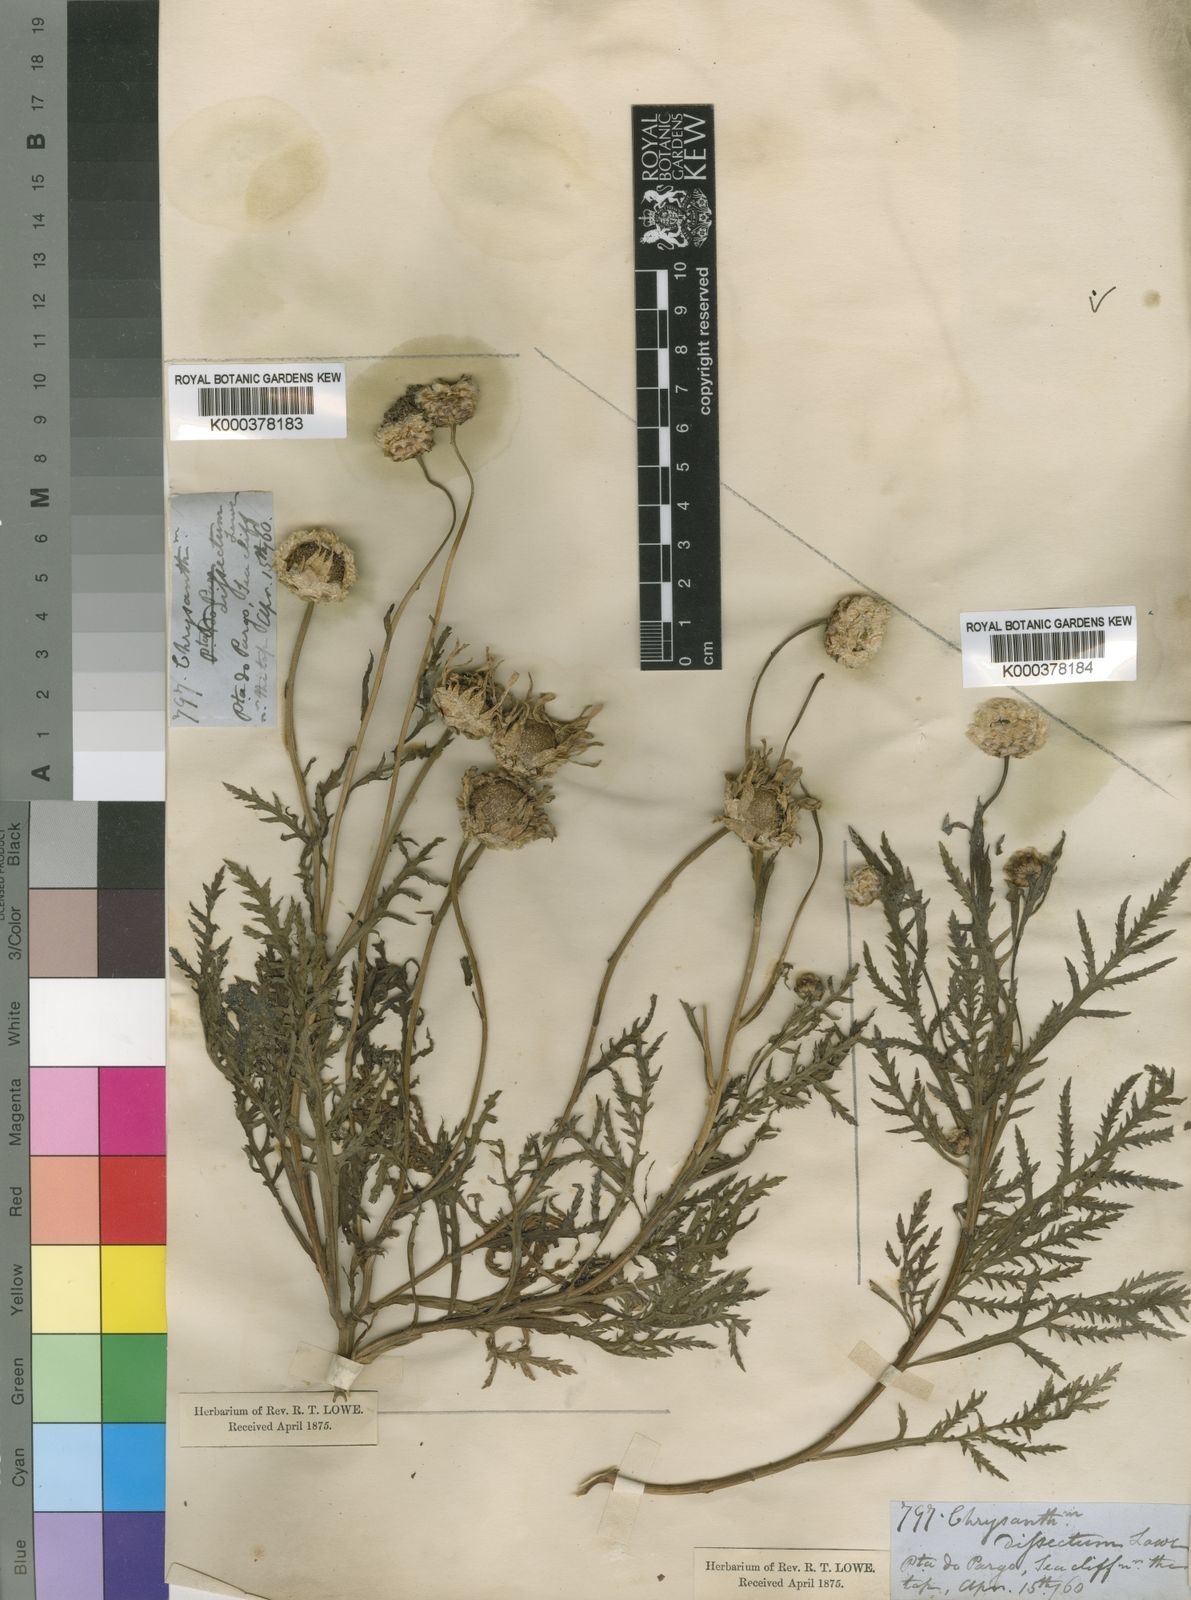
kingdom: Plantae
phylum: Tracheophyta
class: Magnoliopsida
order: Asterales
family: Asteraceae
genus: Argyranthemum
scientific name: Argyranthemum dissectum
